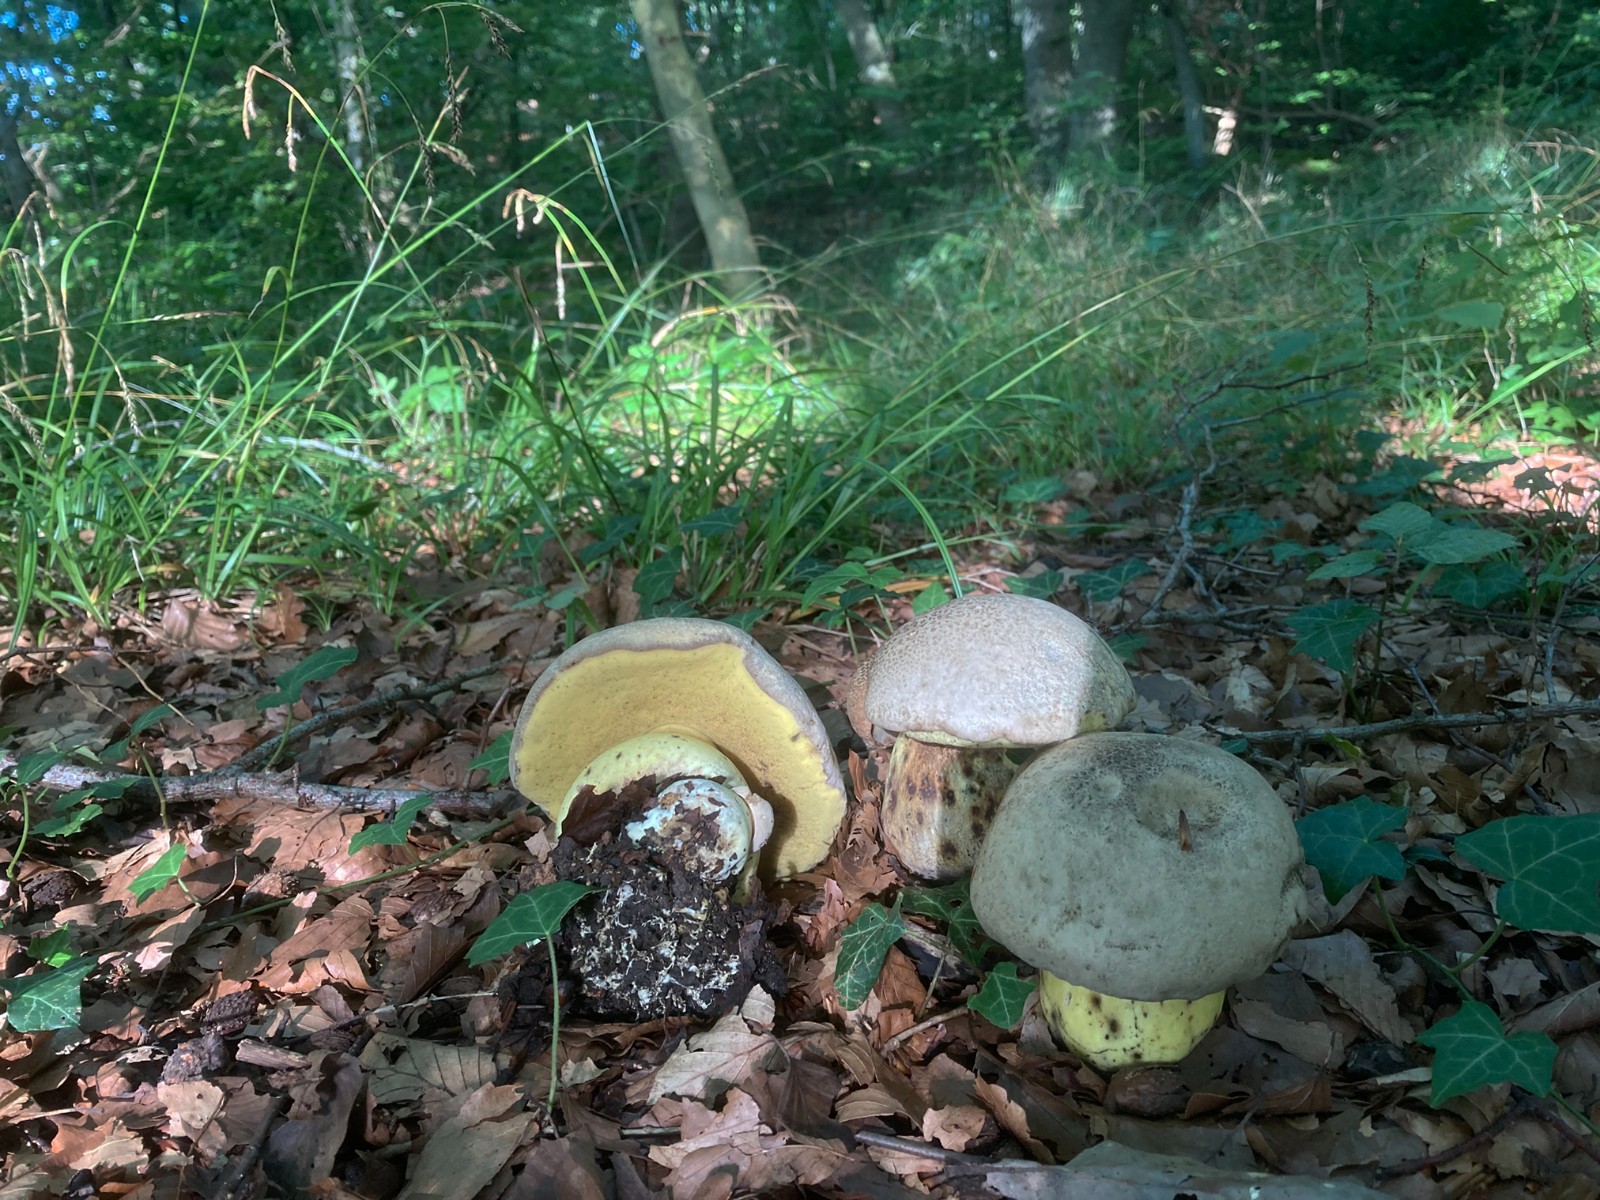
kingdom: Fungi
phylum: Basidiomycota
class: Agaricomycetes
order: Boletales
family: Boletaceae
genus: Caloboletus
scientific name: Caloboletus radicans
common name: rod-rørhat
